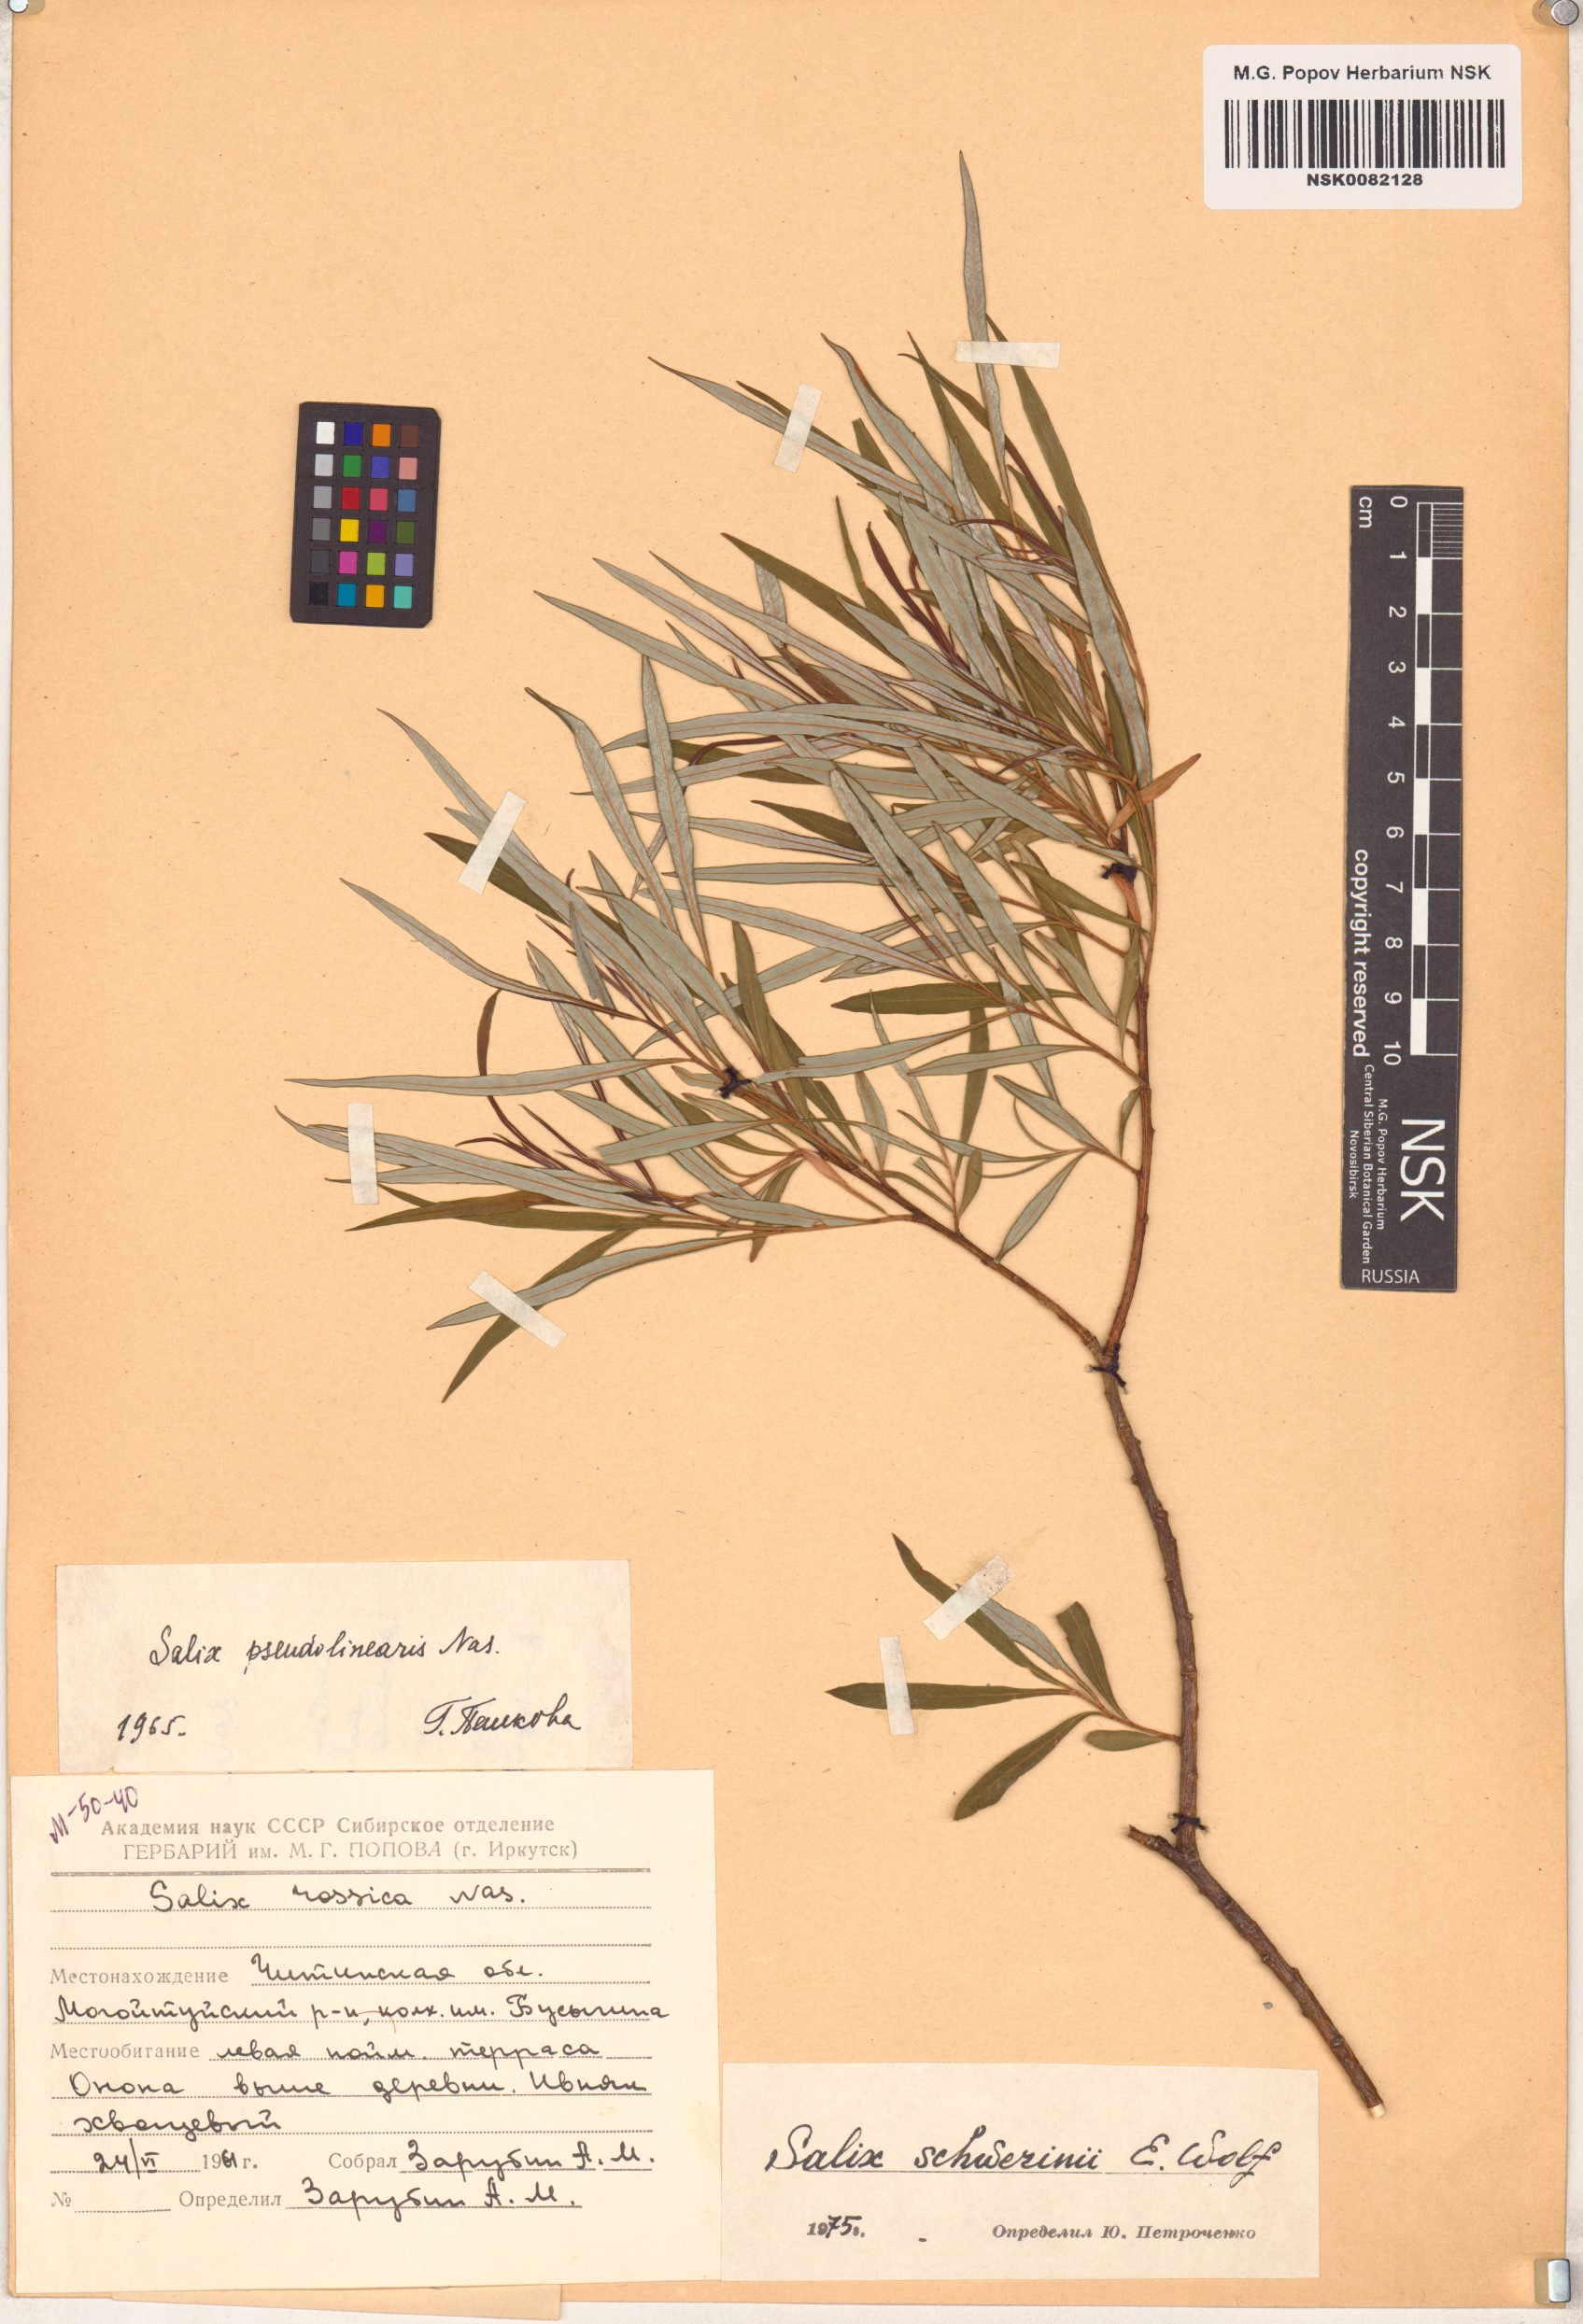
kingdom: Plantae
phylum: Tracheophyta
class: Magnoliopsida
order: Malpighiales
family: Salicaceae
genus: Salix
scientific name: Salix schwerinii
